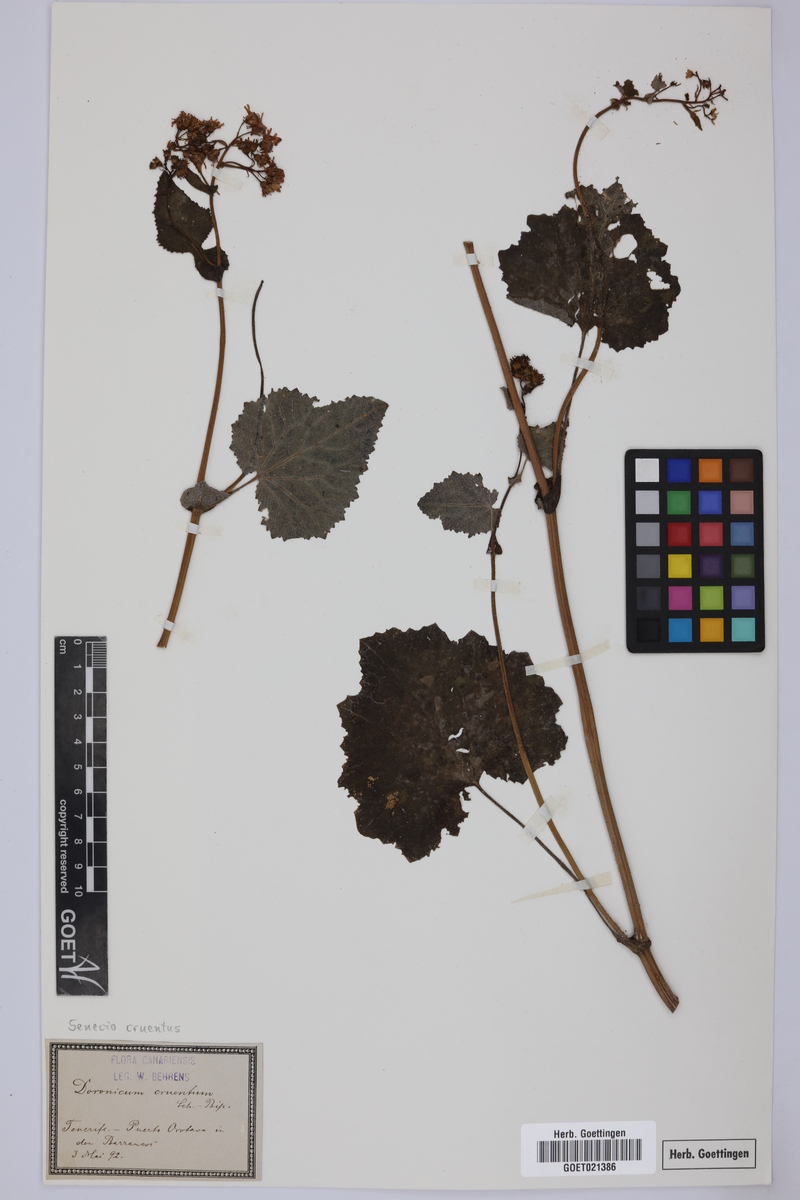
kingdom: Plantae
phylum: Tracheophyta
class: Magnoliopsida
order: Asterales
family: Asteraceae
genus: Pericallis
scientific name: Pericallis cruenta
